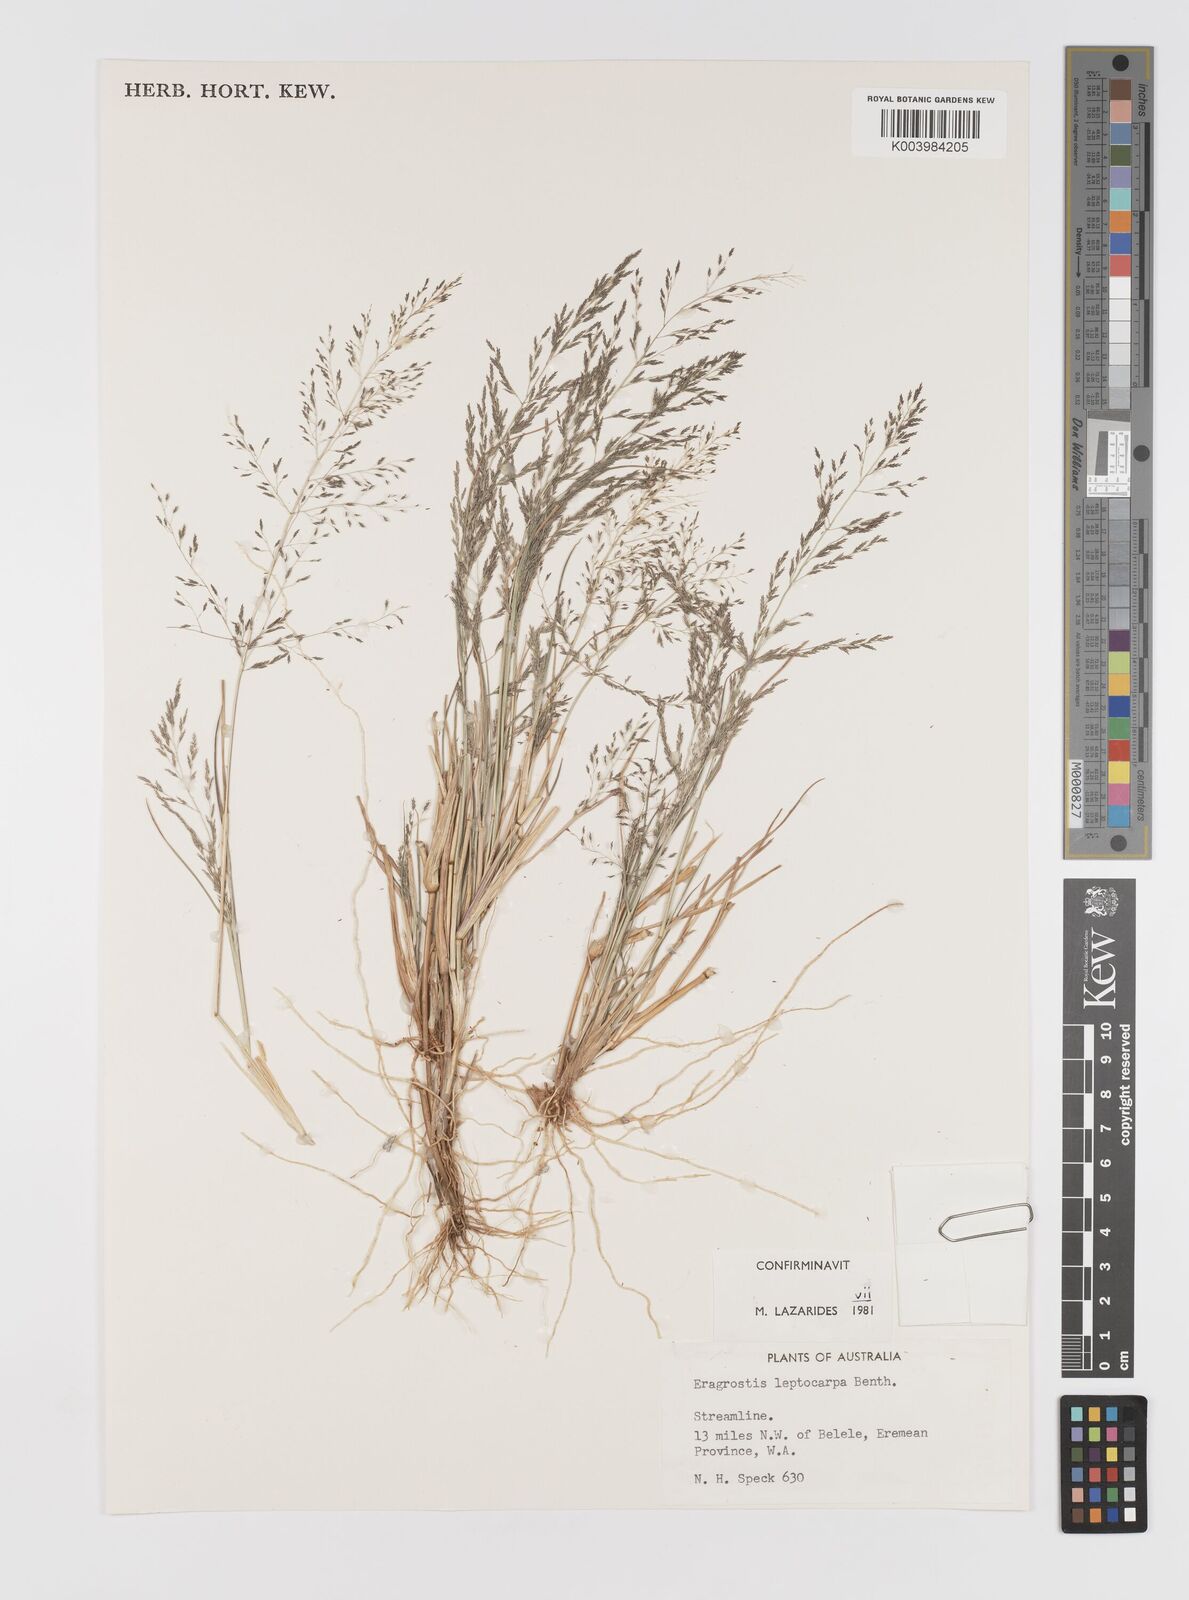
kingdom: Plantae
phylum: Tracheophyta
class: Liliopsida
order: Poales
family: Poaceae
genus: Eragrostis
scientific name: Eragrostis leptocarpa
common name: Drooping love grass
